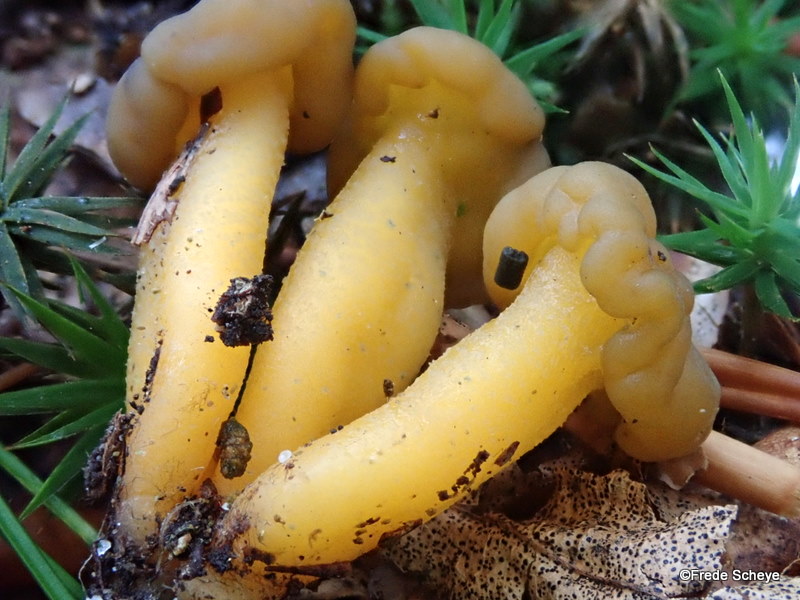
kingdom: Fungi
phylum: Ascomycota
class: Leotiomycetes
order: Leotiales
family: Leotiaceae
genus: Leotia
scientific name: Leotia lubrica
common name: ravsvamp
